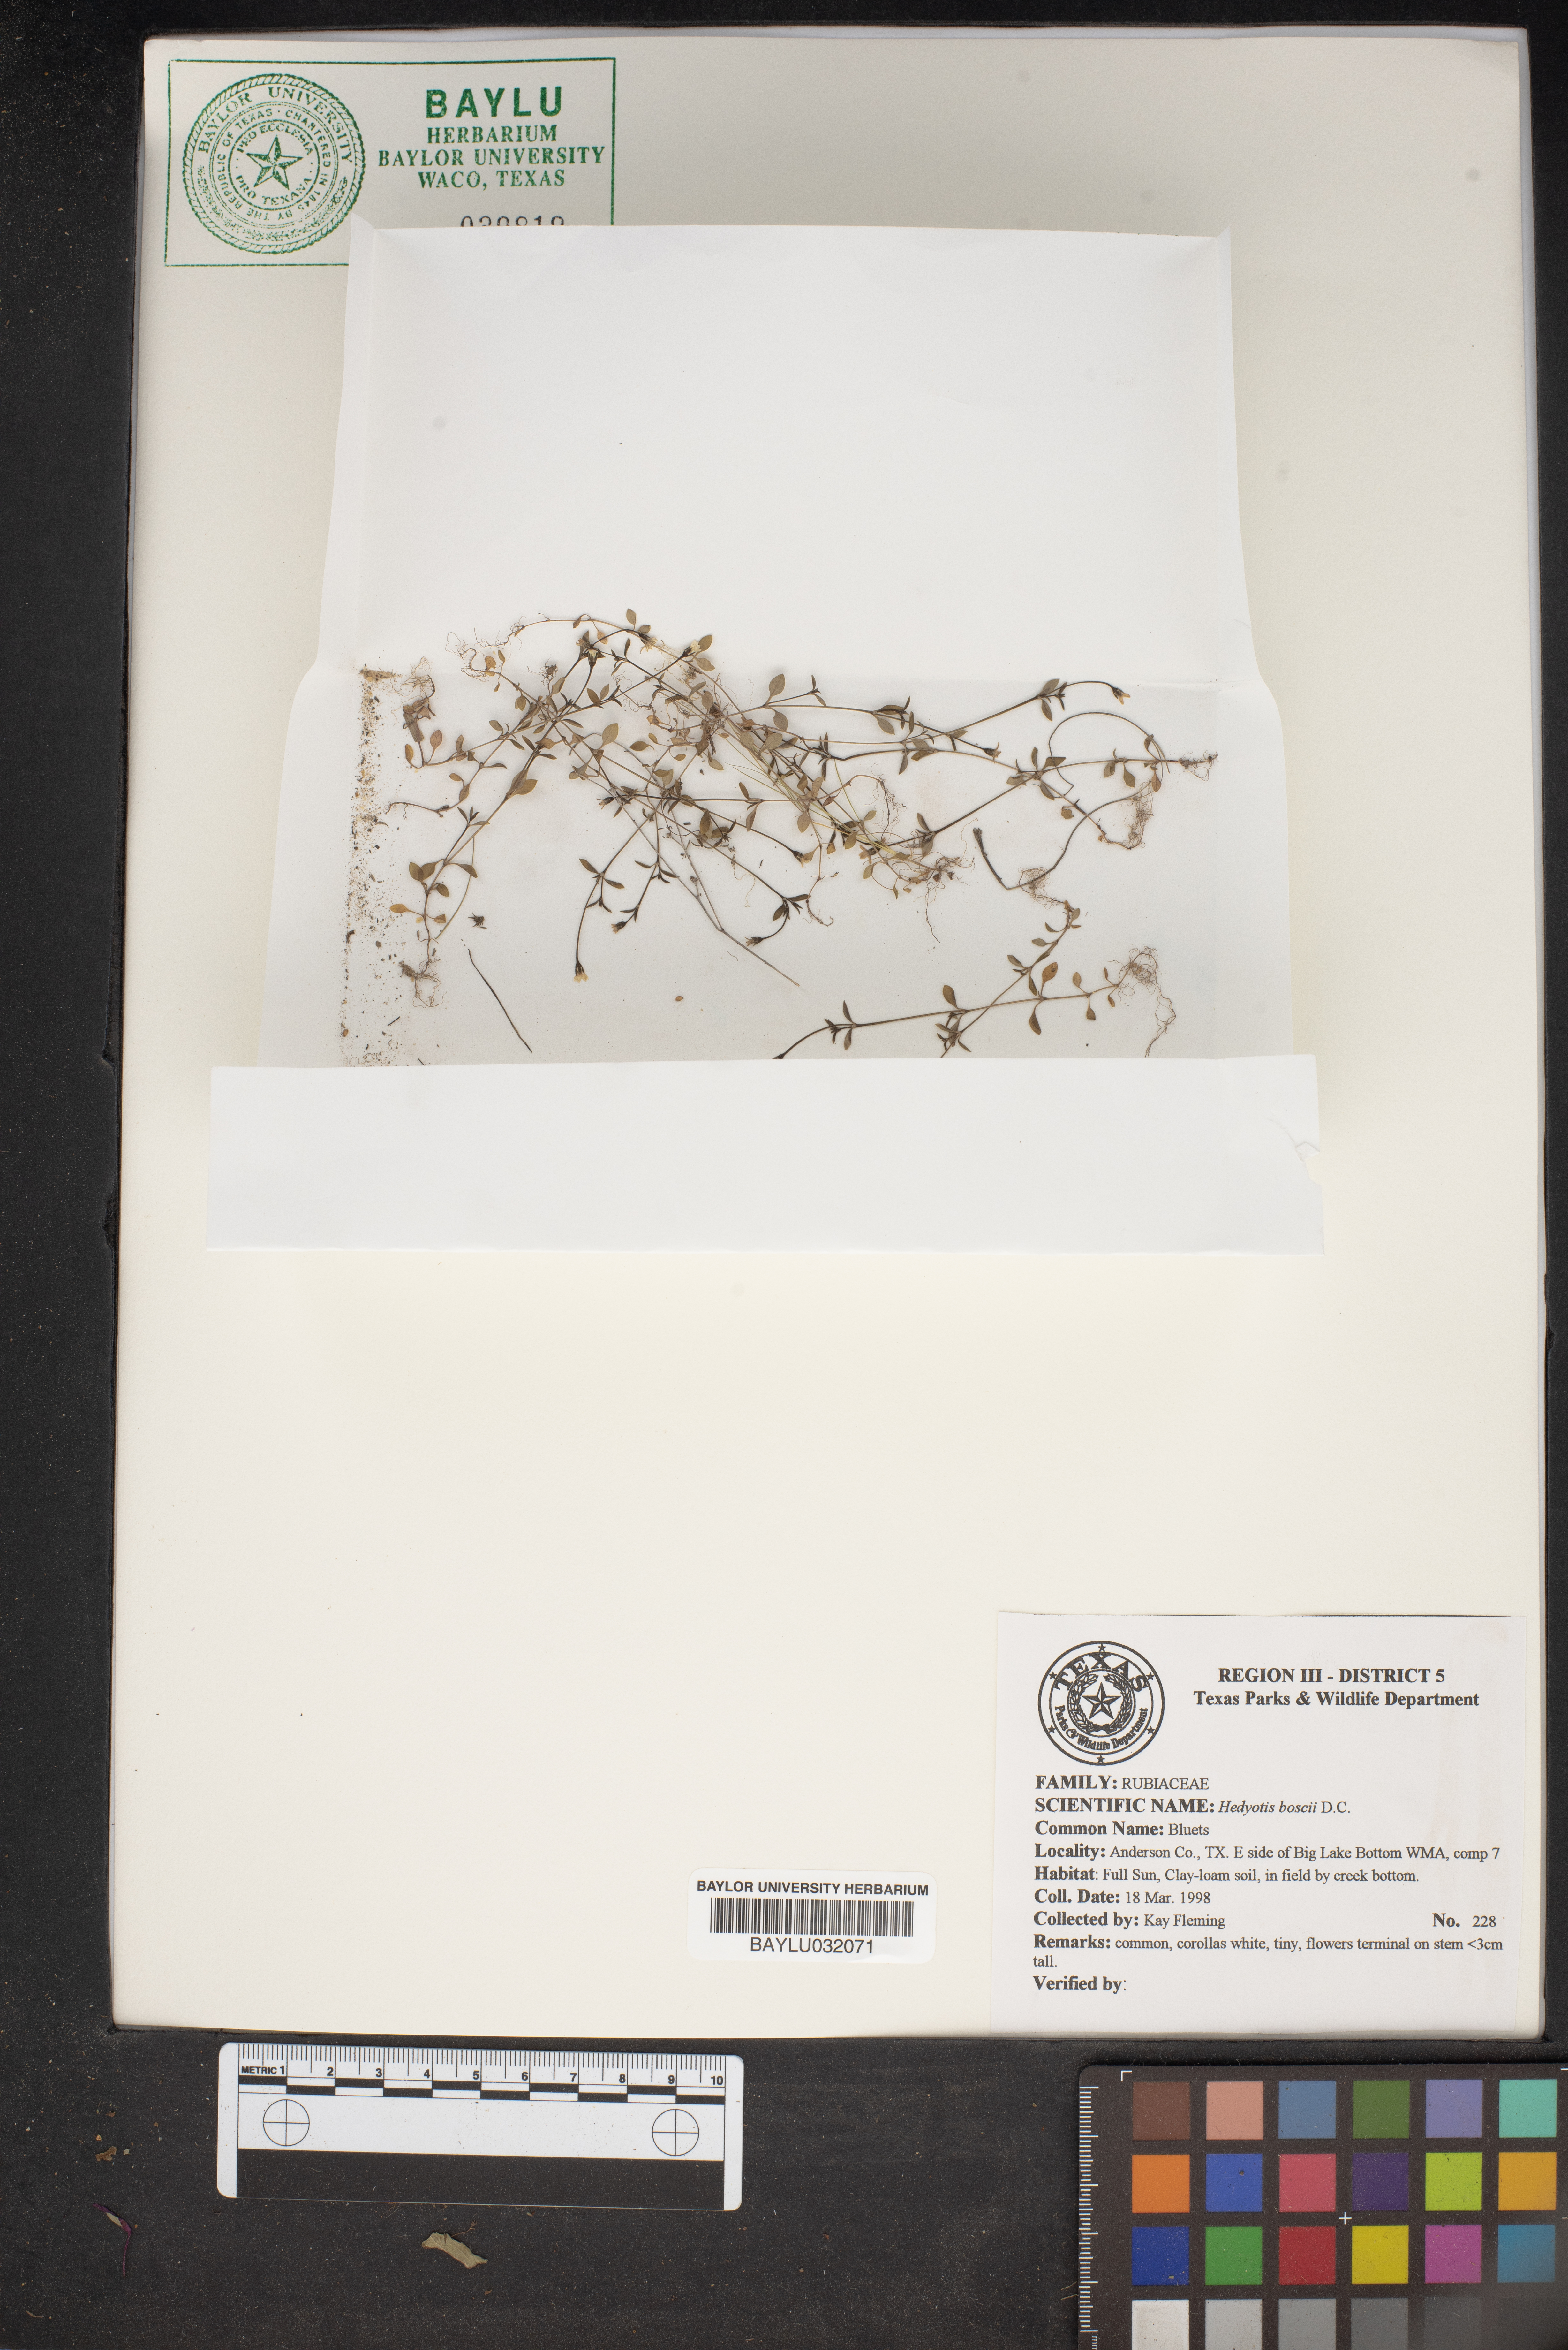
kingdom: Plantae
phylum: Tracheophyta
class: Magnoliopsida
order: Gentianales
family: Rubiaceae
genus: Oldenlandia
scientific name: Oldenlandia boscii
